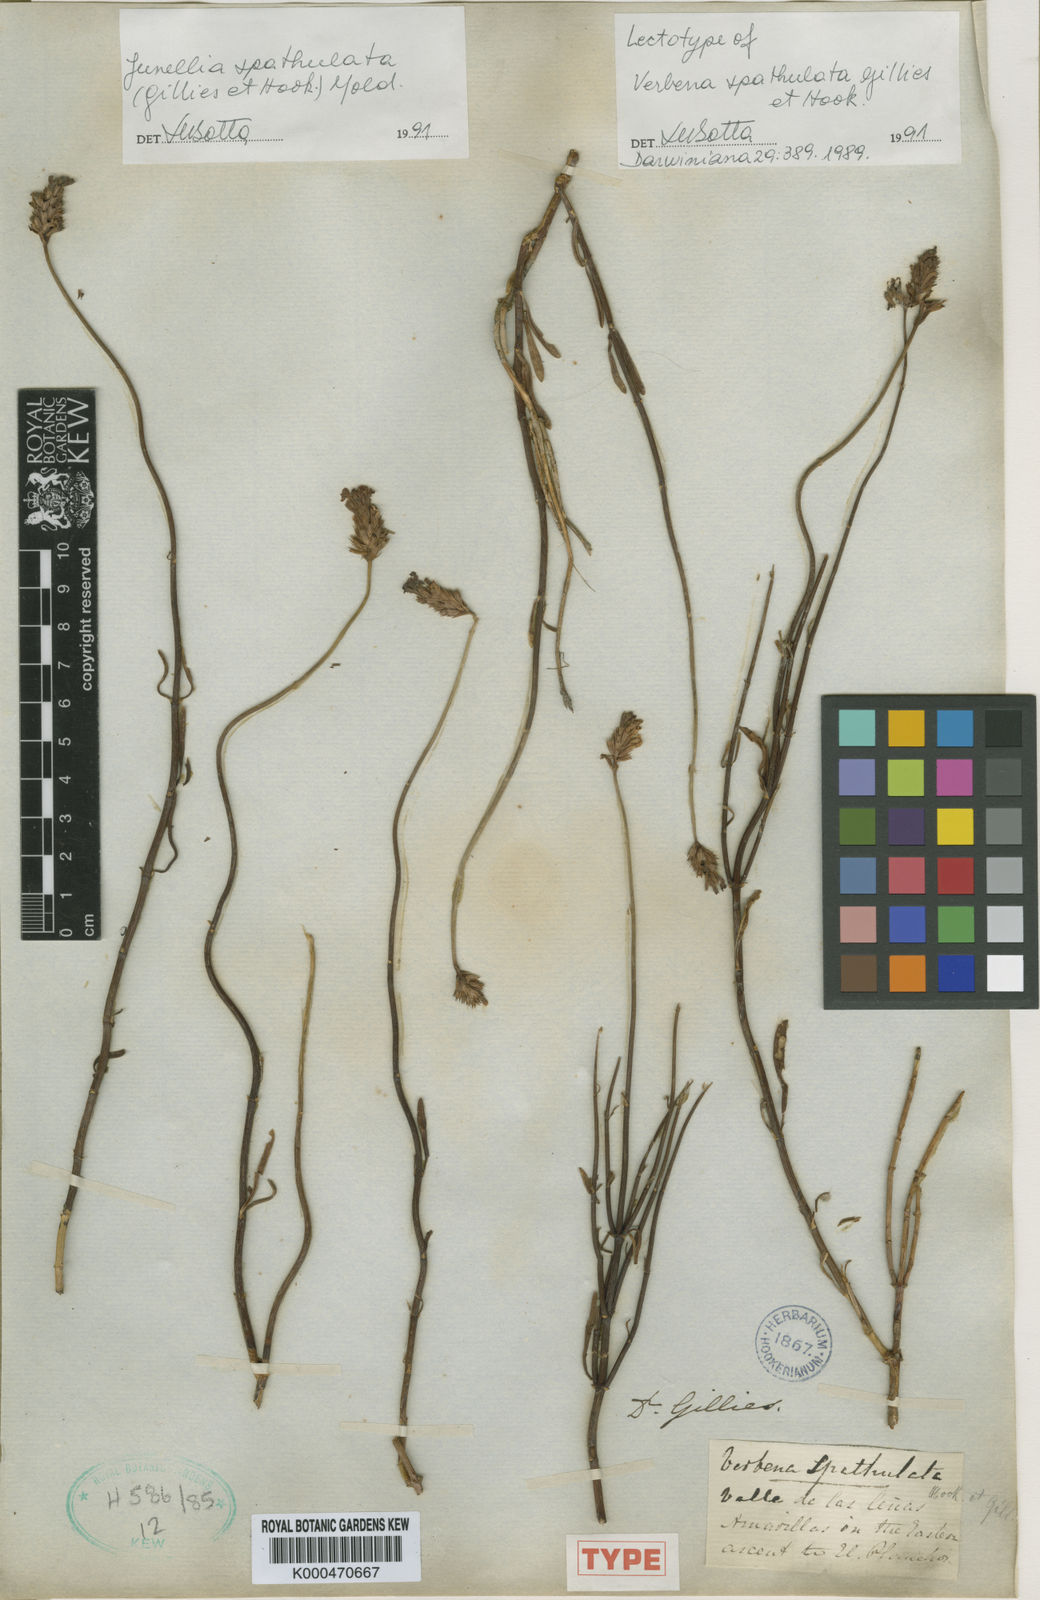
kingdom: Plantae
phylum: Tracheophyta
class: Magnoliopsida
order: Lamiales
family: Verbenaceae
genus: Junellia
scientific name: Junellia spathulata
